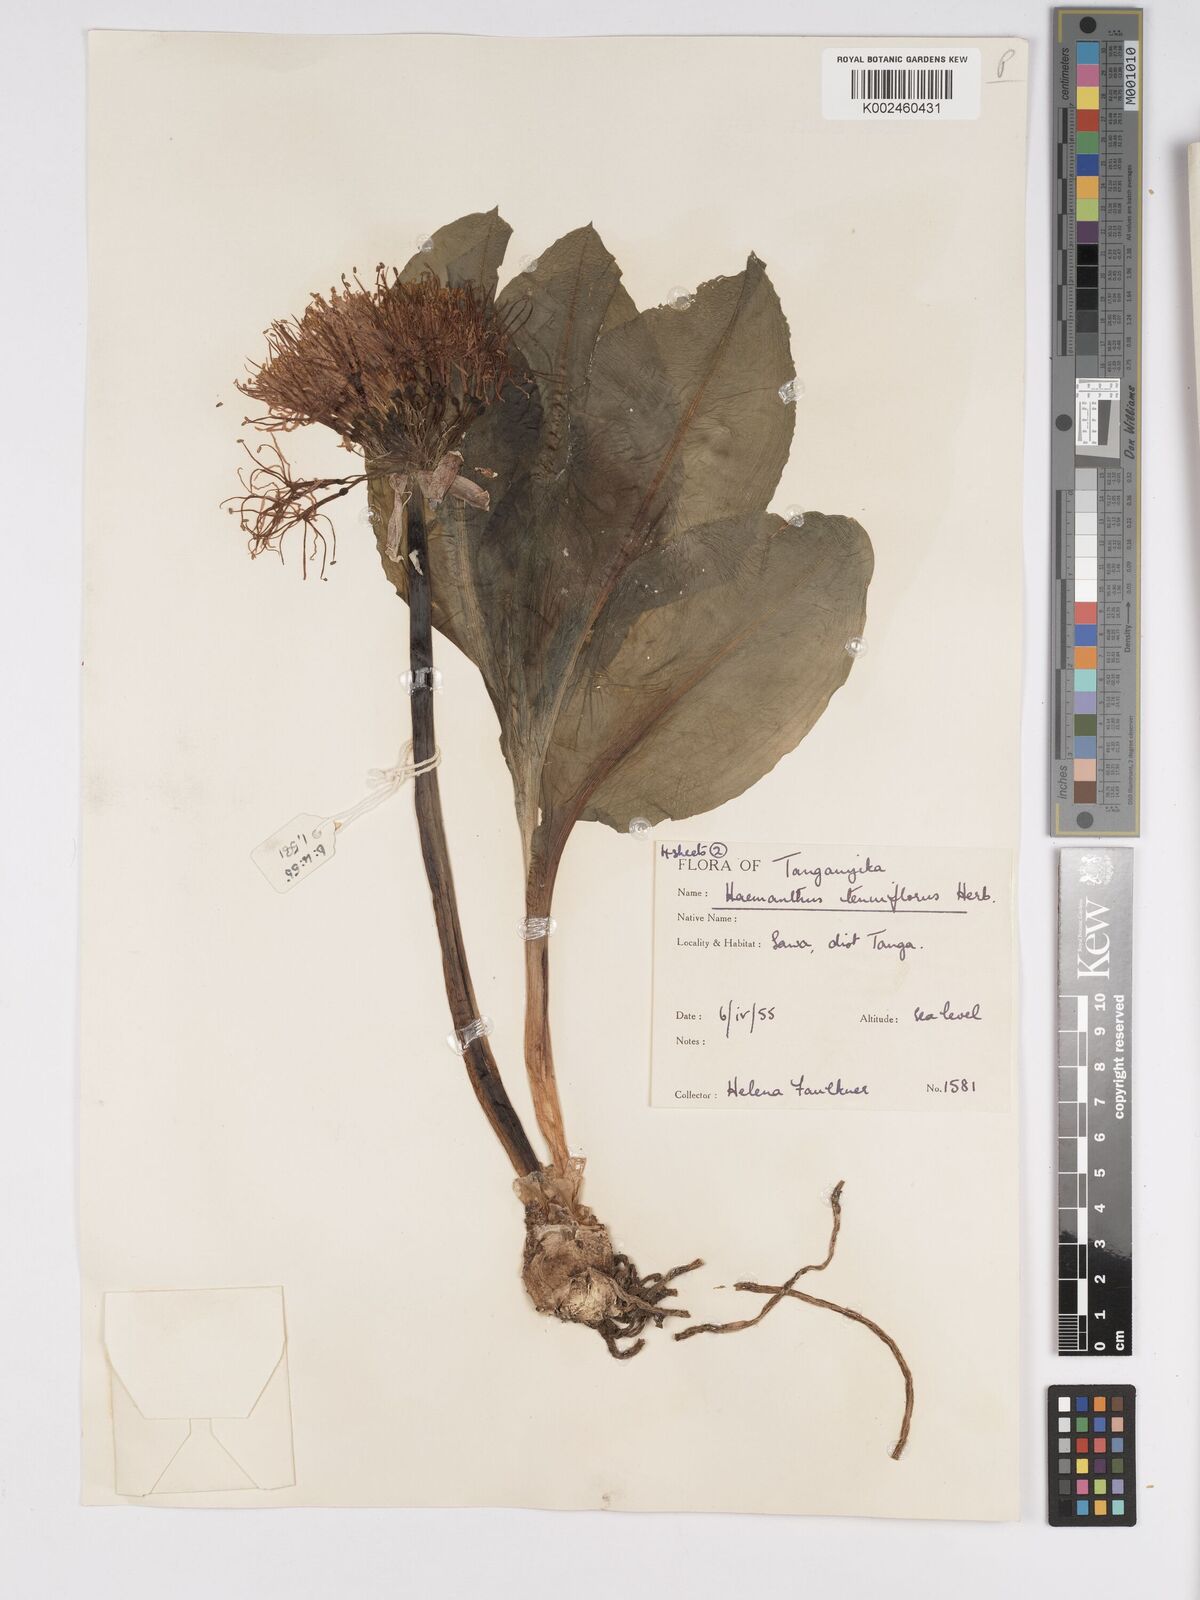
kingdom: Plantae
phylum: Tracheophyta
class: Liliopsida
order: Asparagales
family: Amaryllidaceae
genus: Scadoxus
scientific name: Scadoxus multiflorus
